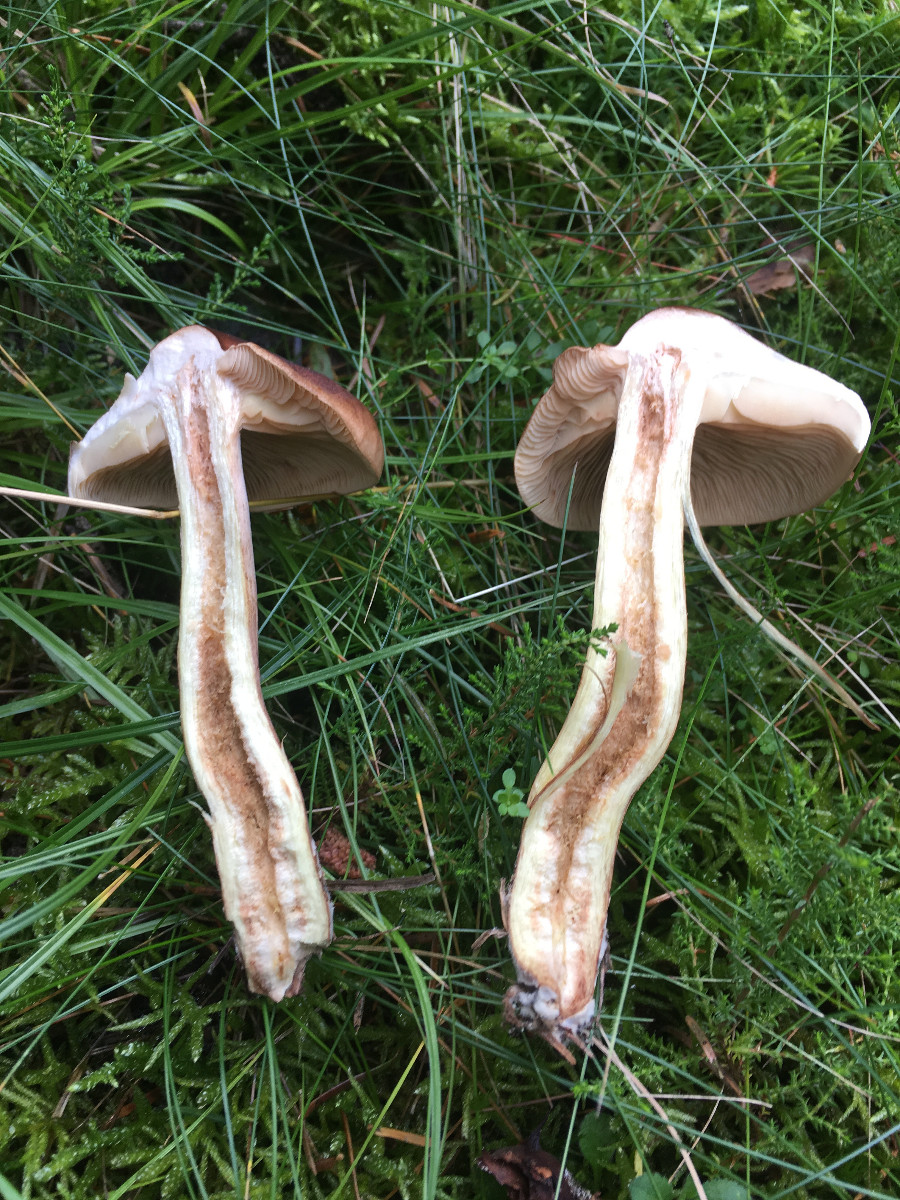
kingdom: Fungi
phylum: Basidiomycota
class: Agaricomycetes
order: Agaricales
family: Tricholomataceae
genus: Tricholoma
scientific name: Tricholoma fulvum
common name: birke-ridderhat
